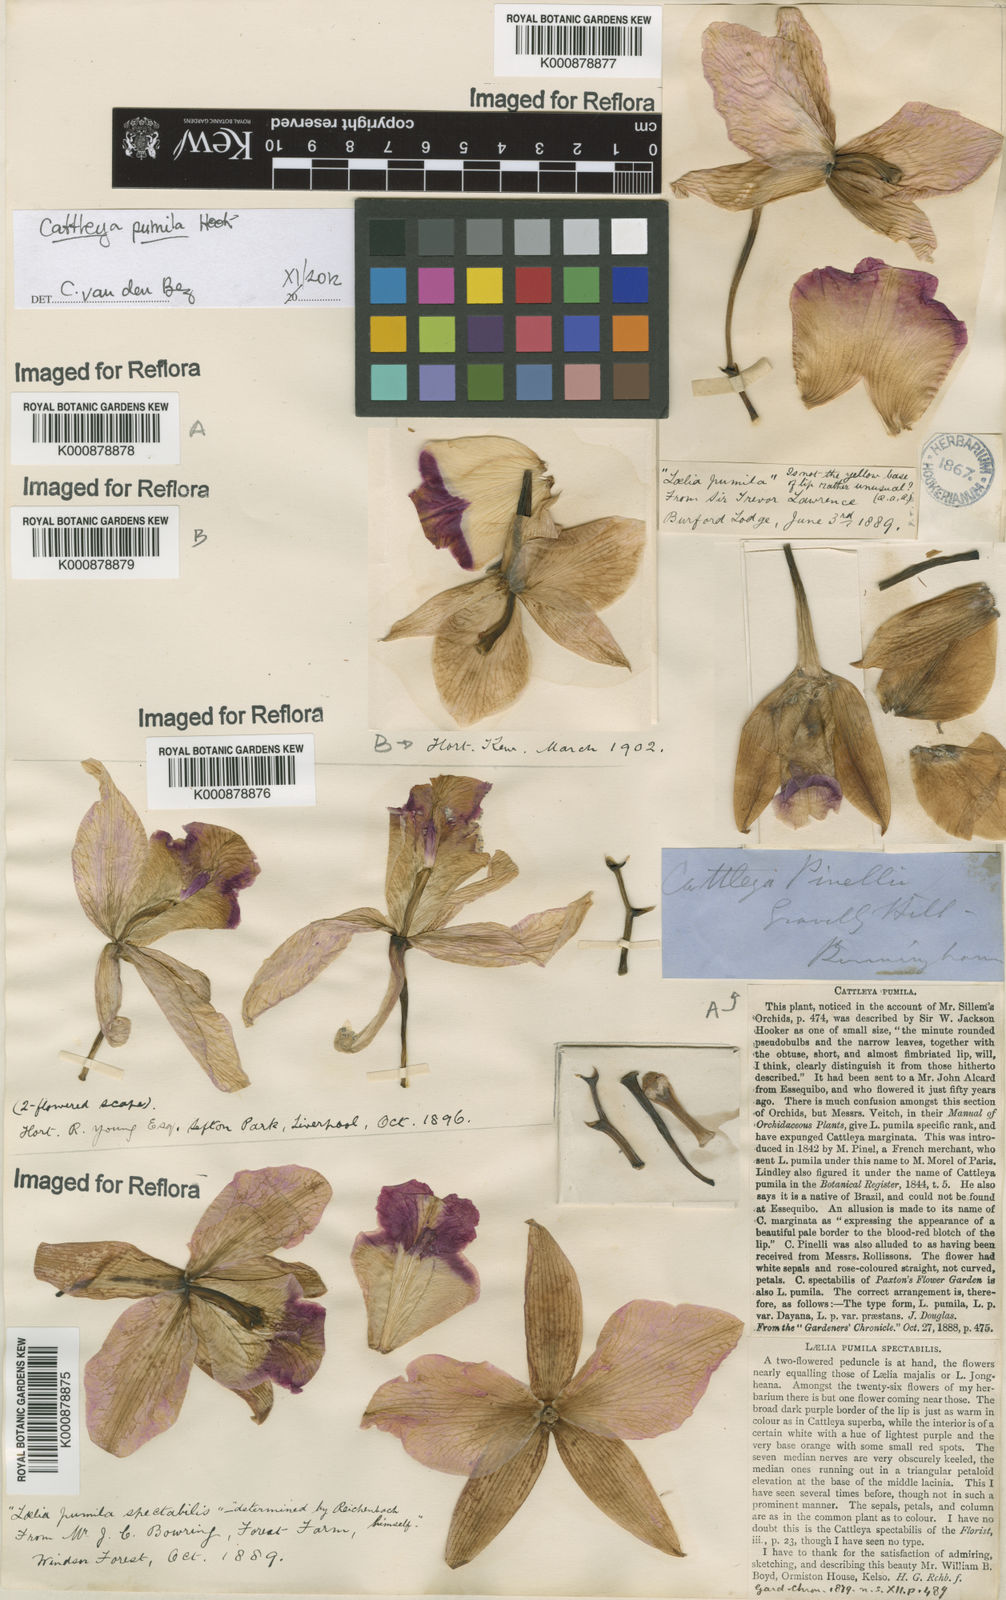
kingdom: Plantae
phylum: Tracheophyta
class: Liliopsida
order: Asparagales
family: Orchidaceae
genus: Cattleya
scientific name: Cattleya pumila
